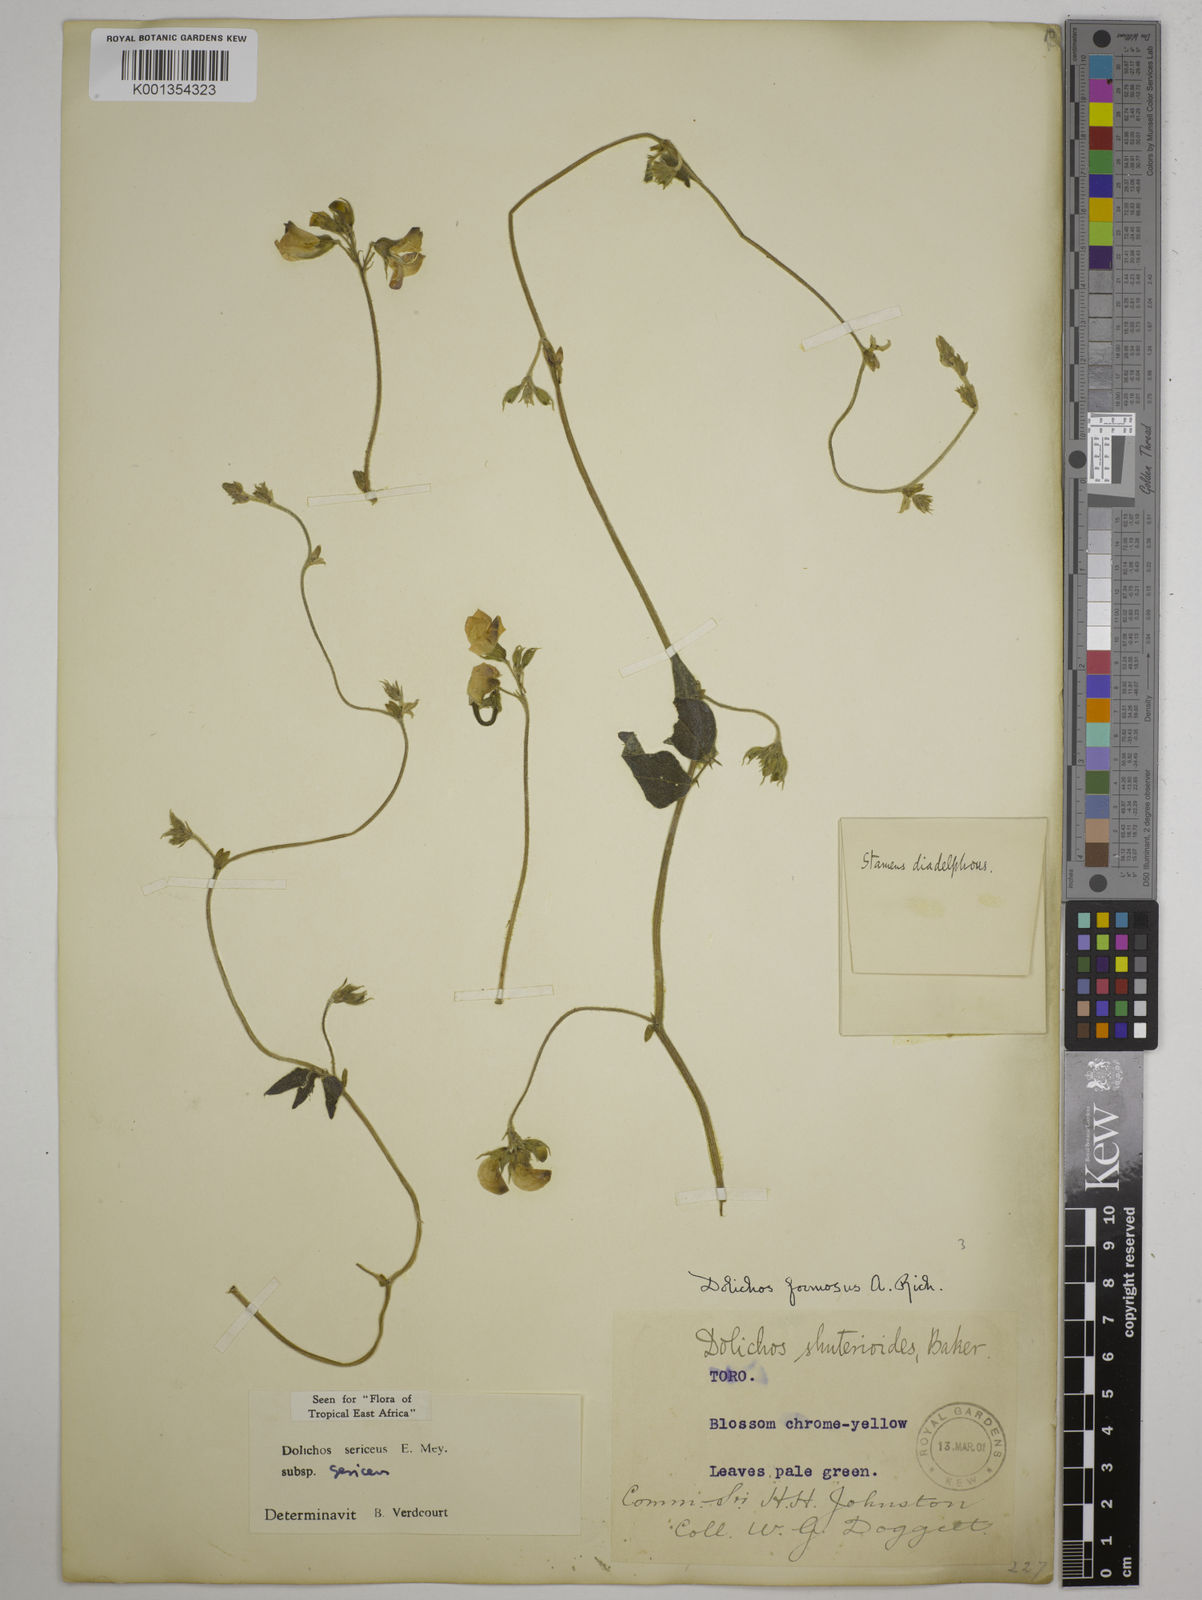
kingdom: Plantae
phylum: Tracheophyta
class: Magnoliopsida
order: Fabales
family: Fabaceae
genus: Dolichos
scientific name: Dolichos sericeus
